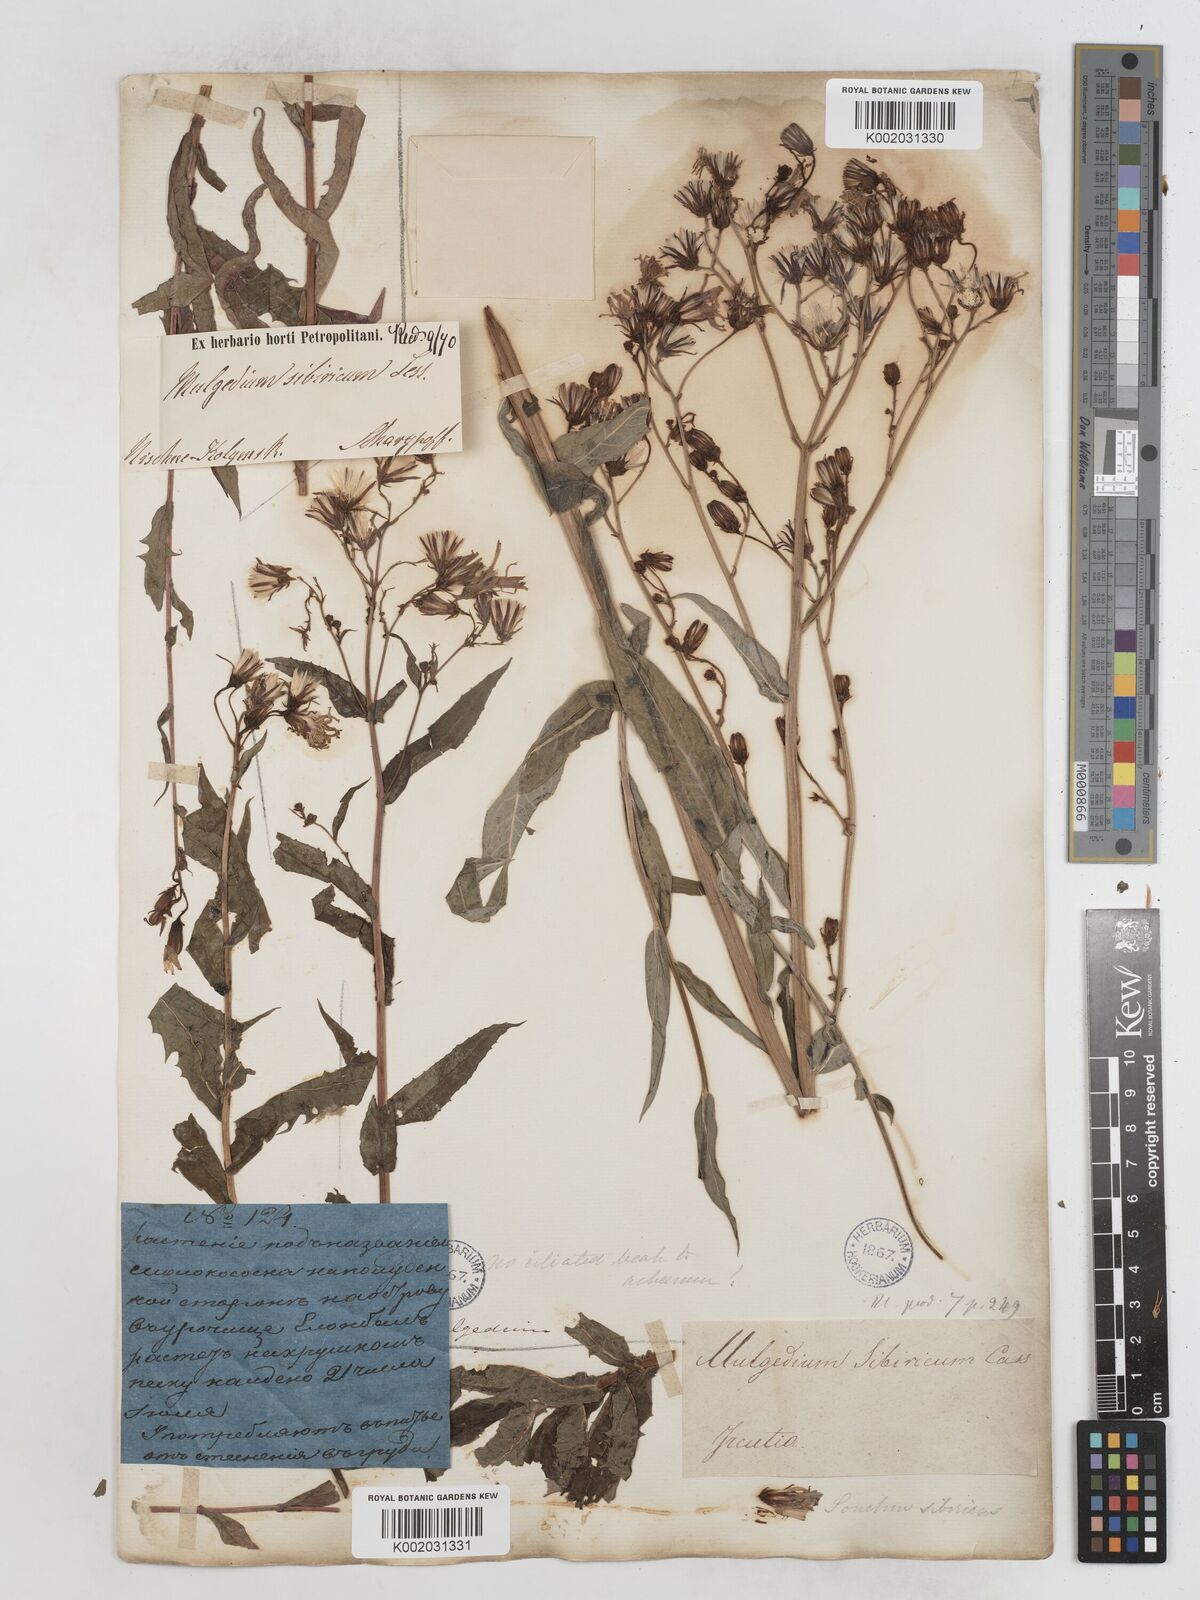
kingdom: Plantae
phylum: Tracheophyta
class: Magnoliopsida
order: Asterales
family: Asteraceae
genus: Lactuca
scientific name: Lactuca sibirica
